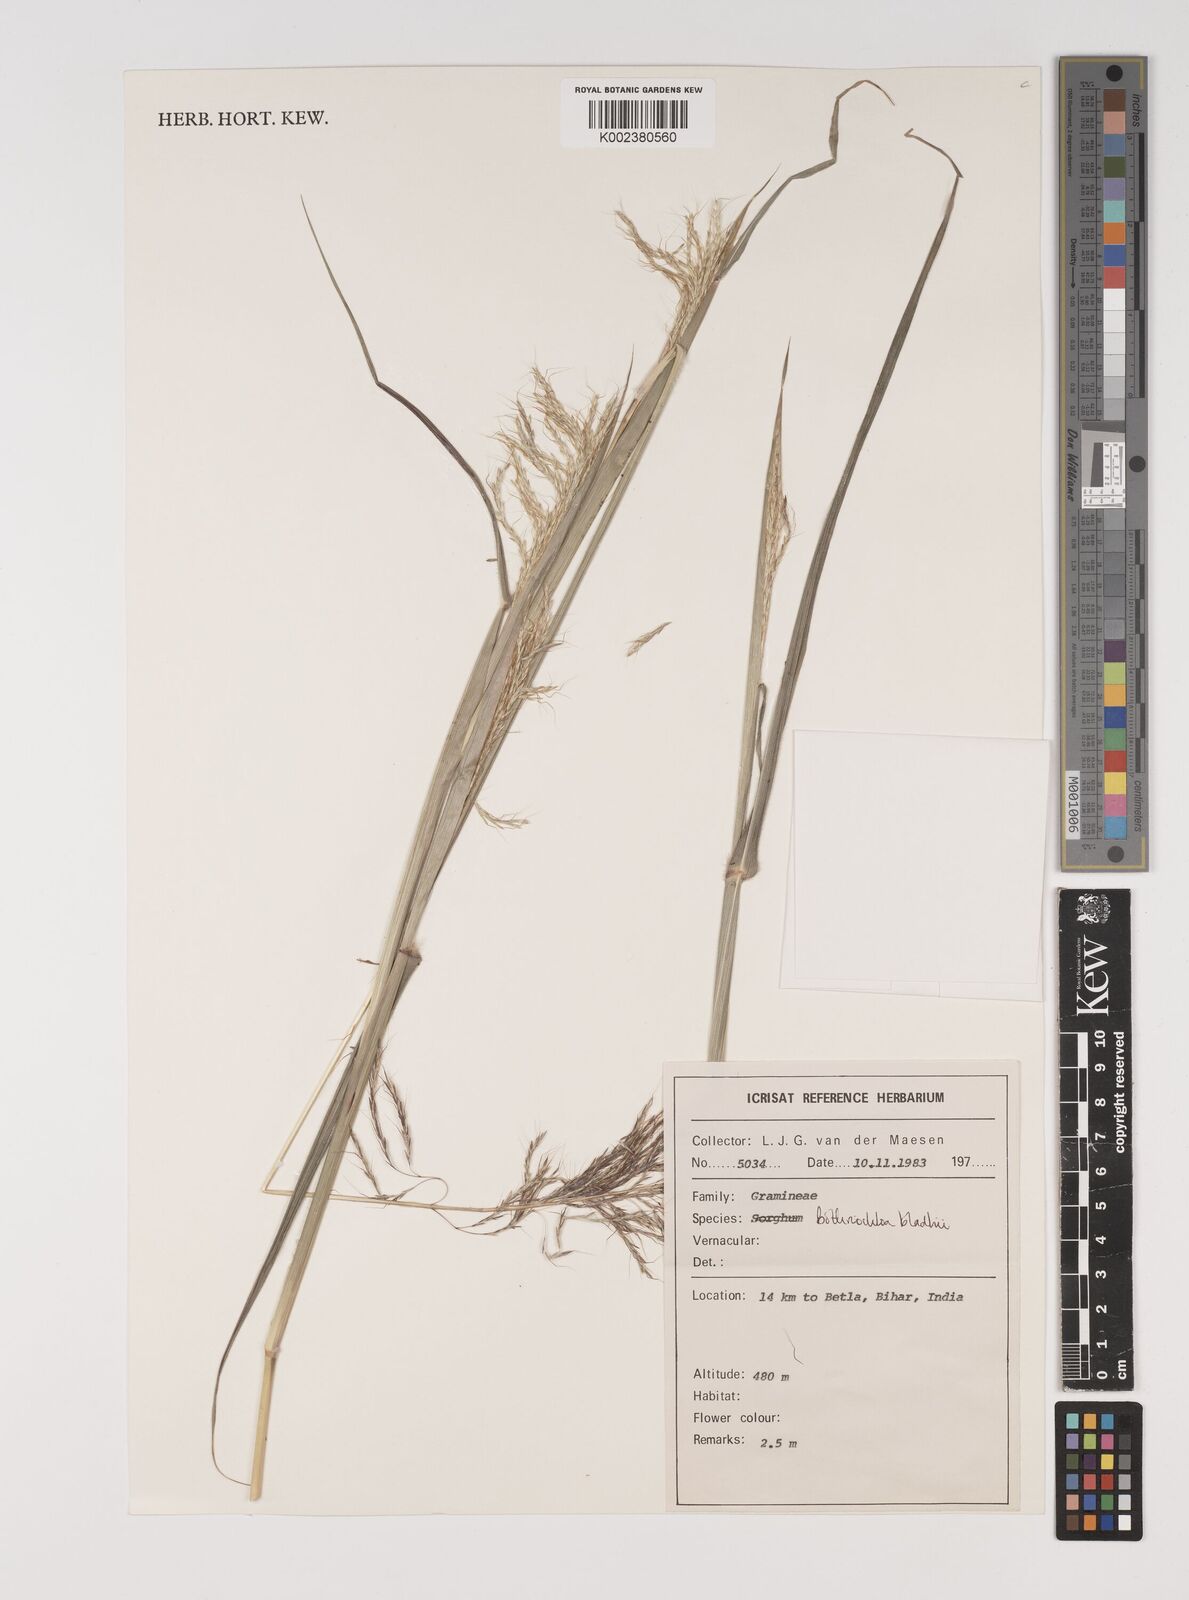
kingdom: Plantae
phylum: Tracheophyta
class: Liliopsida
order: Poales
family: Poaceae
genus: Bothriochloa
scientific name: Bothriochloa bladhii
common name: Caucasian bluestem
